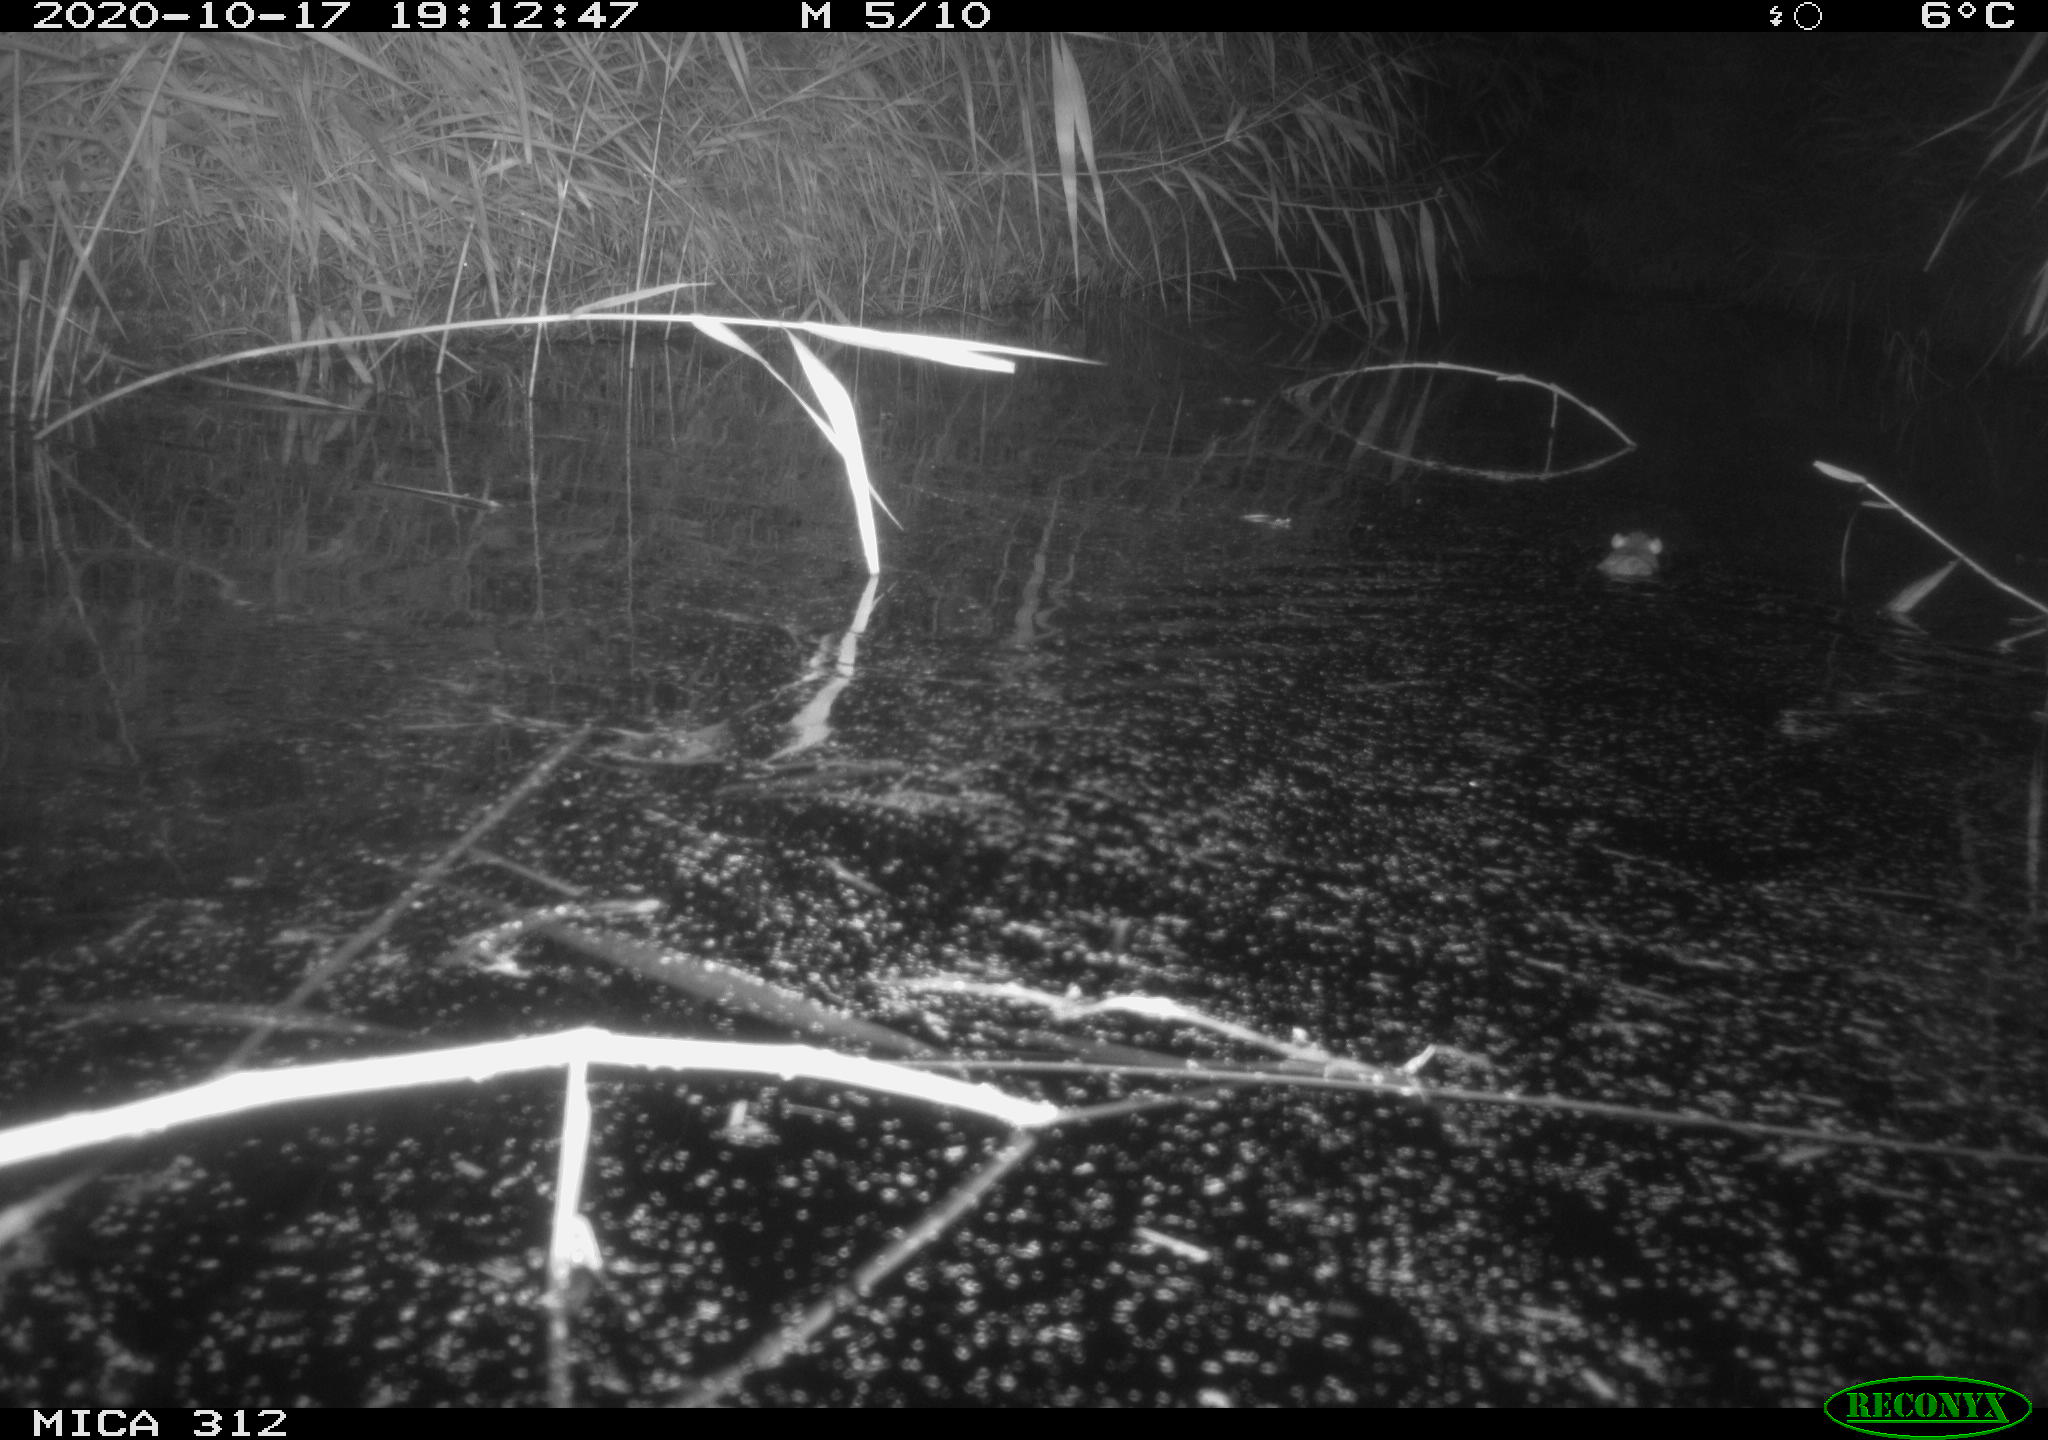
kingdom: Animalia
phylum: Chordata
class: Mammalia
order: Rodentia
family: Muridae
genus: Rattus
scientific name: Rattus norvegicus
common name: Brown rat
